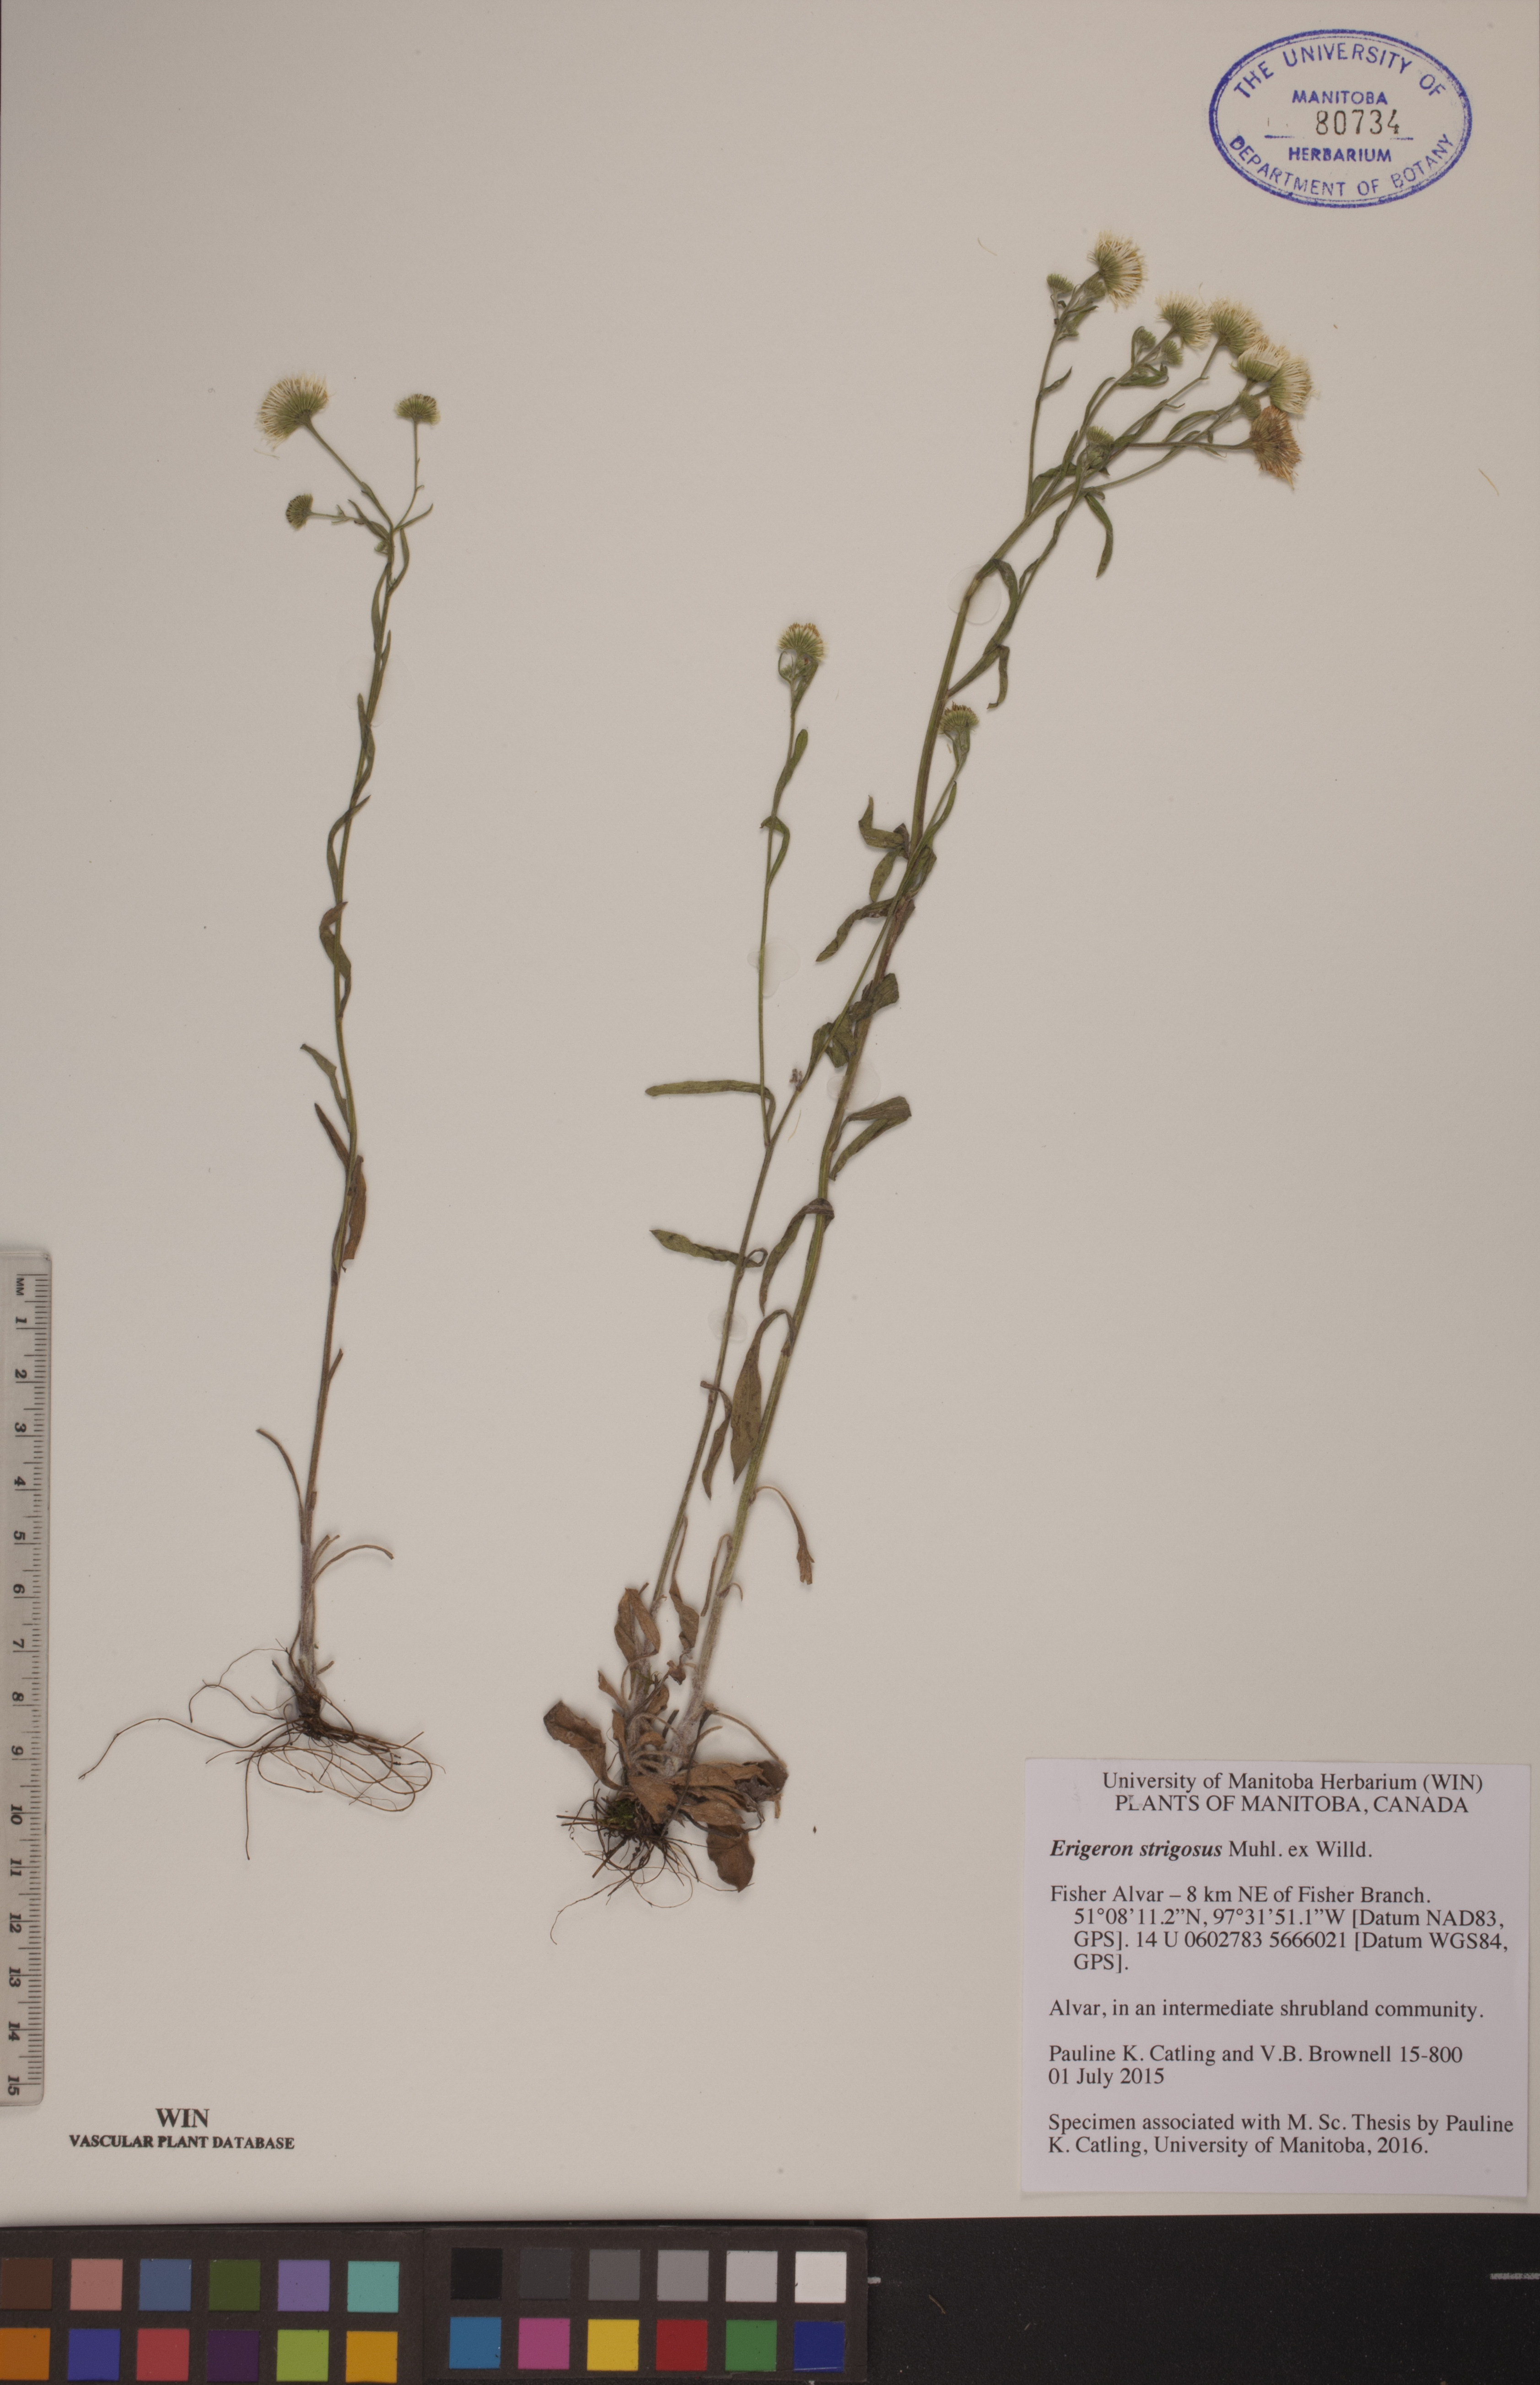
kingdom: Plantae
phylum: Tracheophyta
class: Magnoliopsida
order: Asterales
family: Asteraceae
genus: Erigeron
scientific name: Erigeron strigosus
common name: Common eastern fleabane
